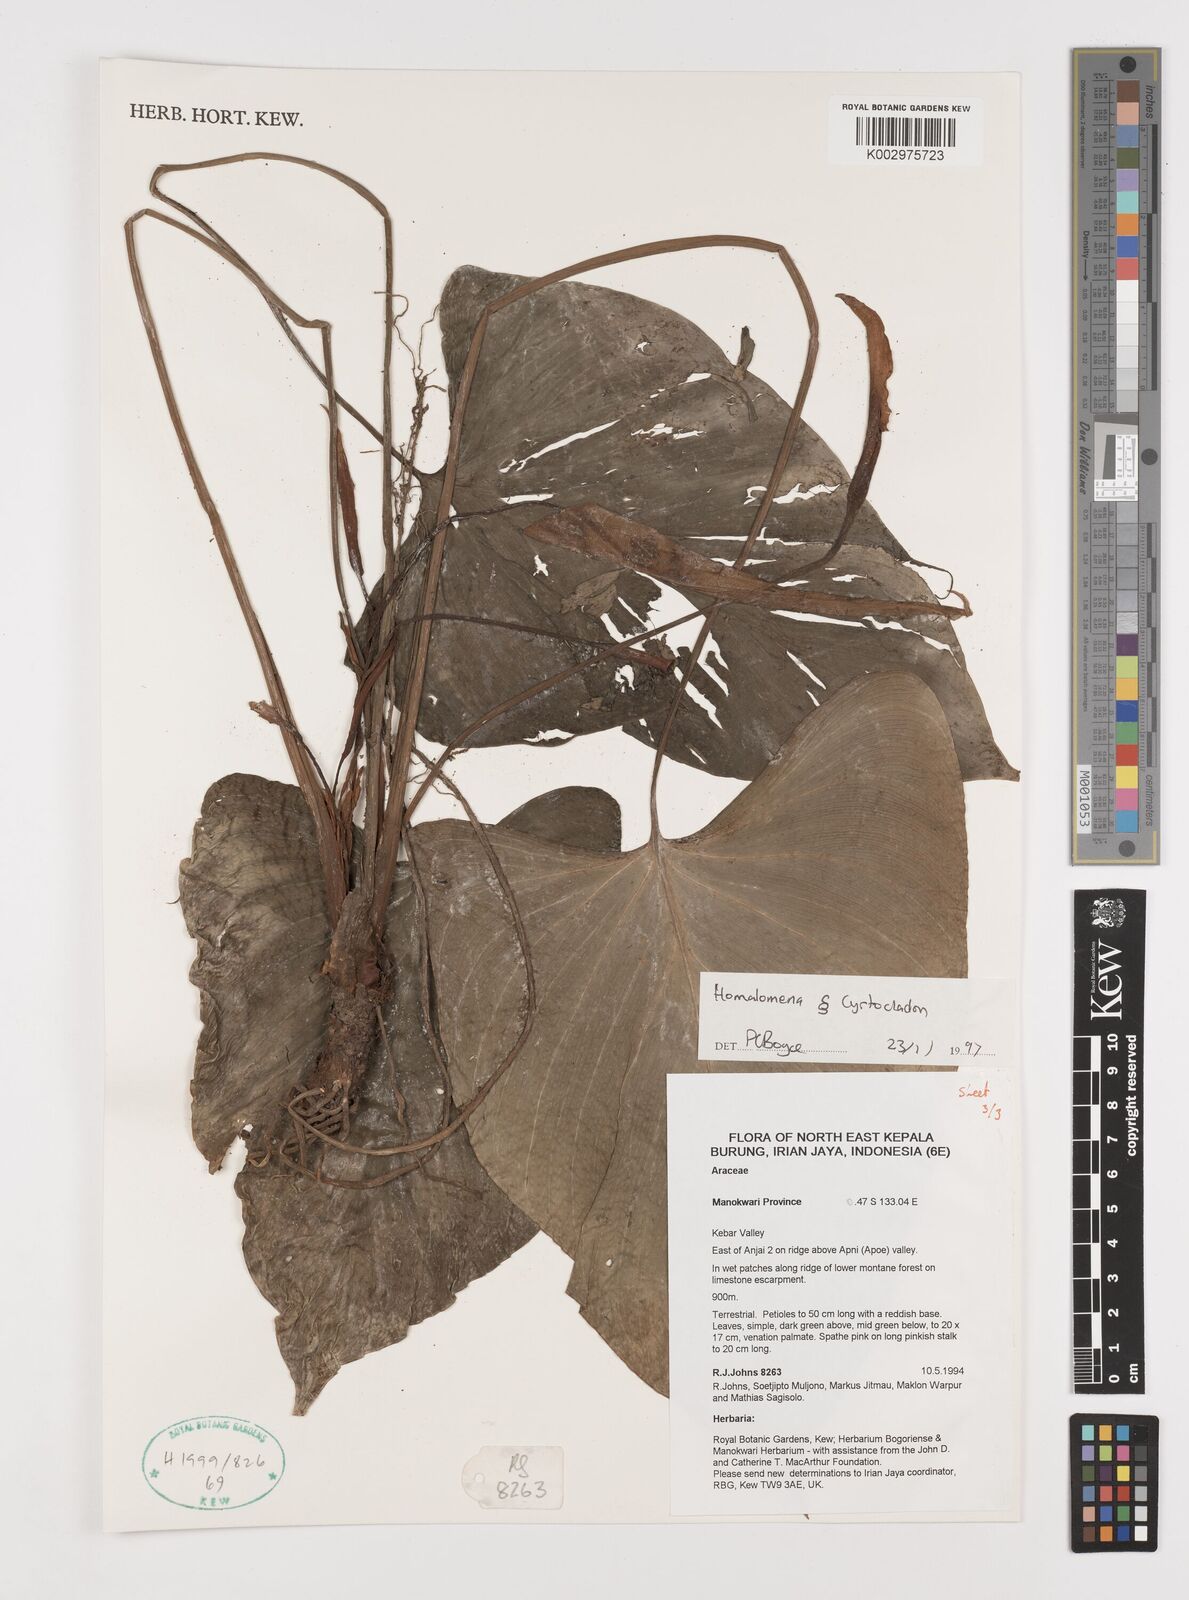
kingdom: Plantae
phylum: Tracheophyta
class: Liliopsida
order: Alismatales
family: Araceae
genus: Homalomena
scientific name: Homalomena producta
